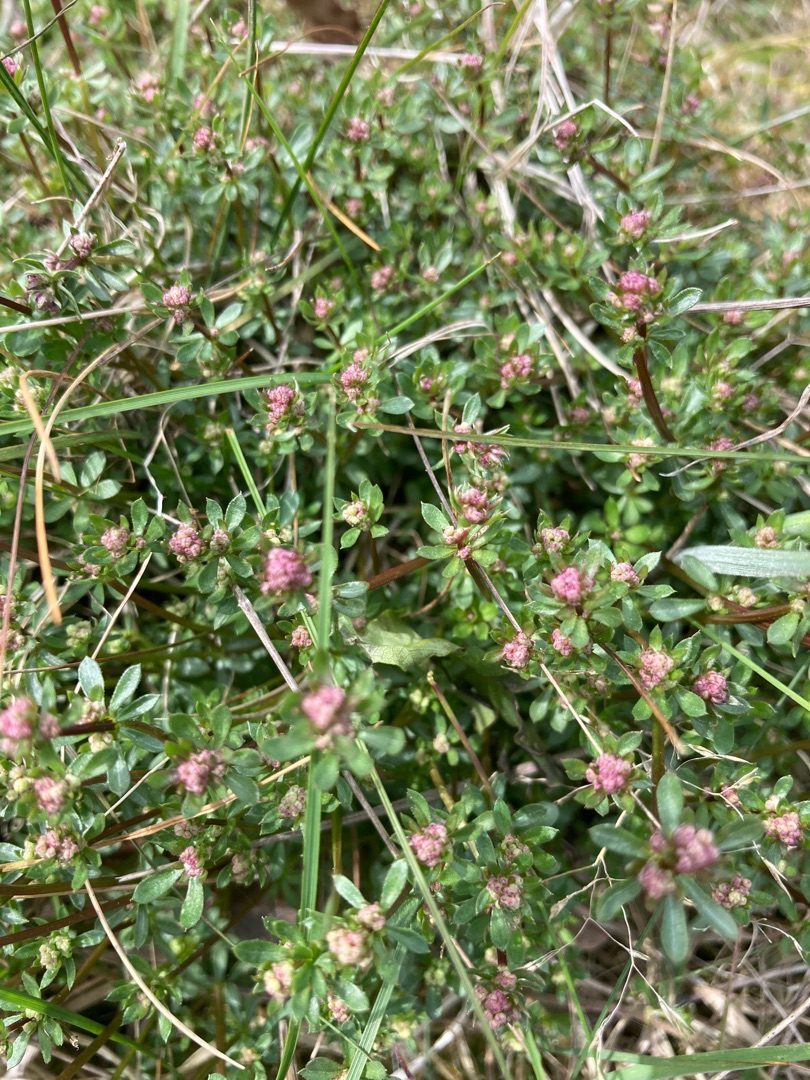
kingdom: Plantae
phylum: Tracheophyta
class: Magnoliopsida
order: Gentianales
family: Rubiaceae
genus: Galium
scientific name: Galium saxatile
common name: Lyng-snerre
